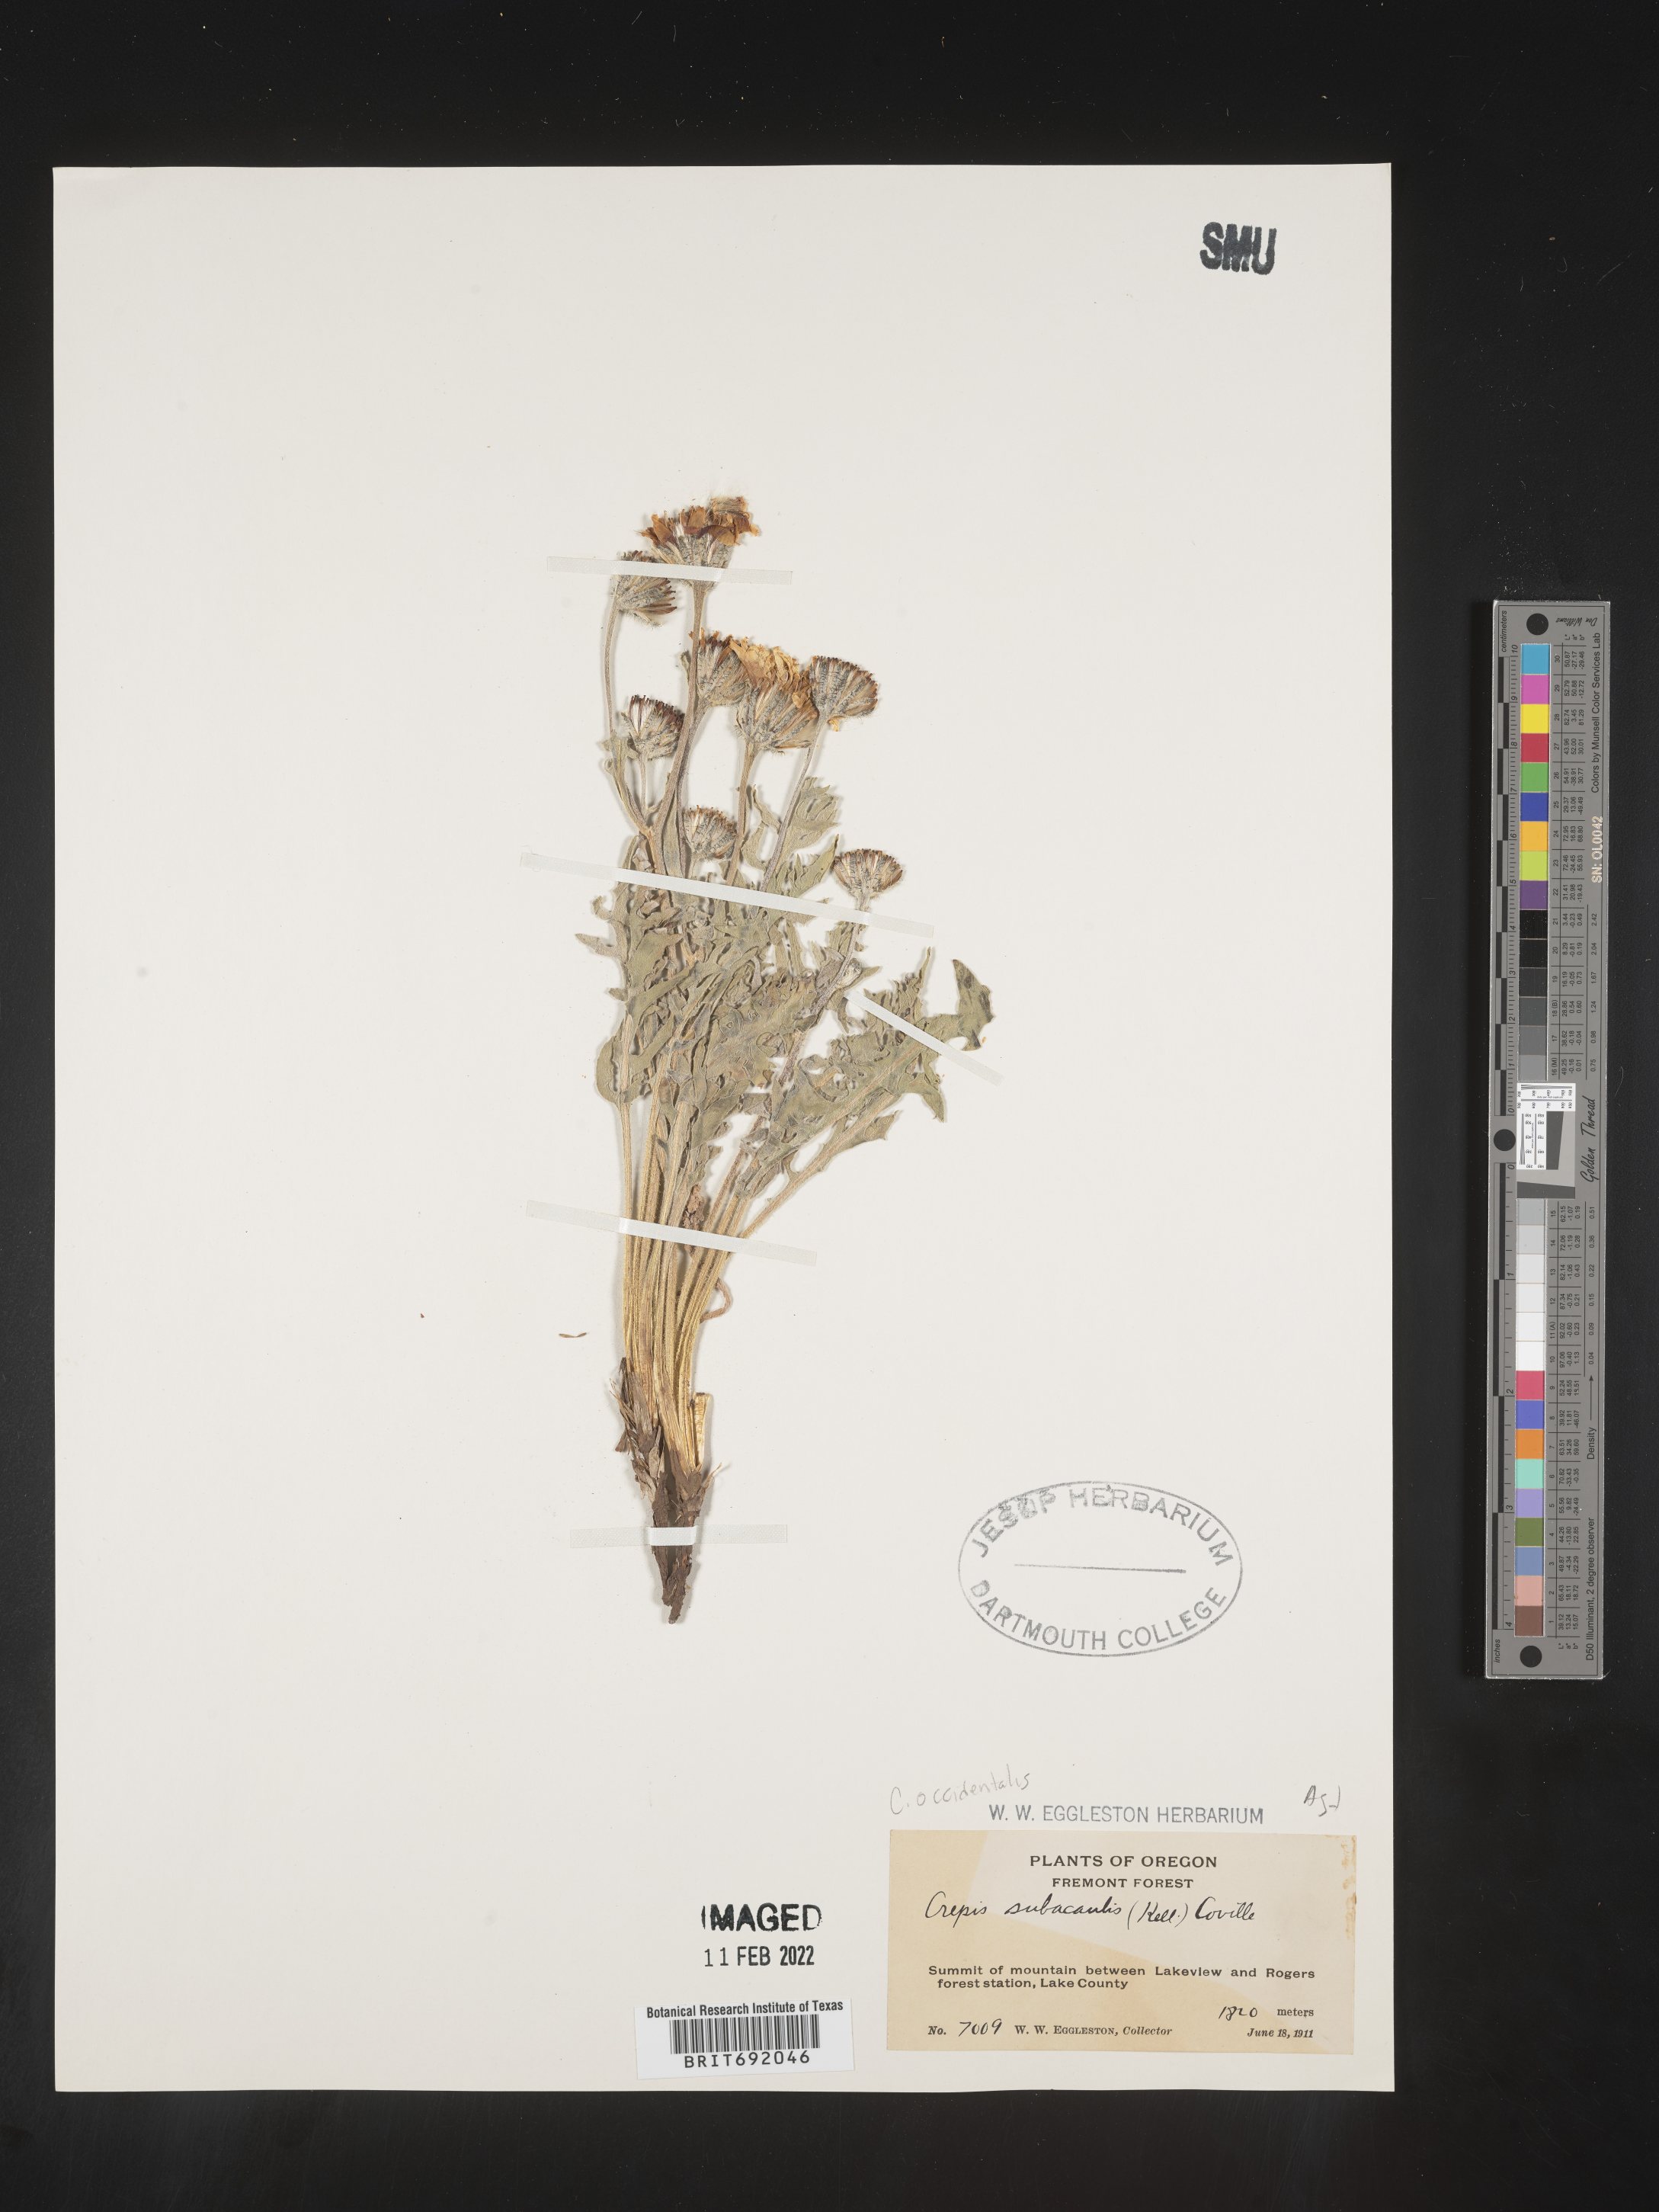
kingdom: Plantae
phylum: Tracheophyta
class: Magnoliopsida
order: Asterales
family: Asteraceae
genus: Crepis
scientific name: Crepis occidentalis
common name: Gray hawk's-beard
